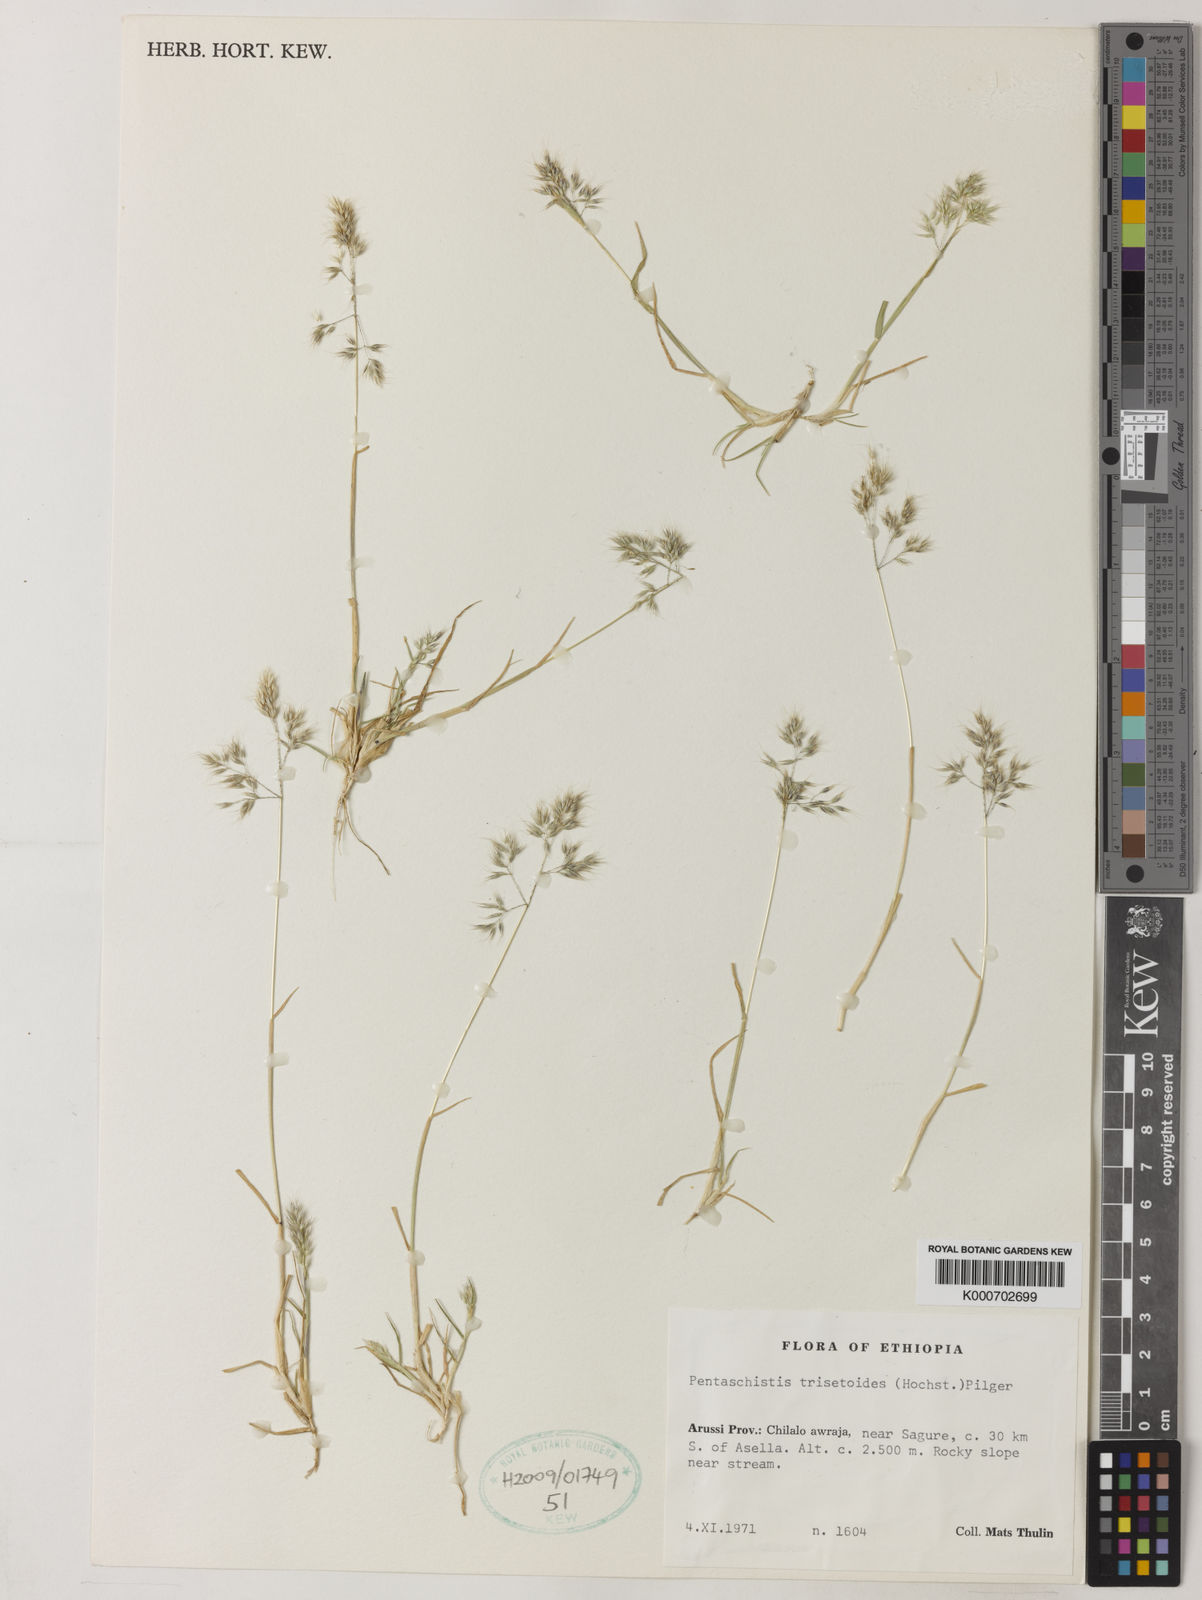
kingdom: Plantae
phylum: Tracheophyta
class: Liliopsida
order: Poales
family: Poaceae
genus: Pentaschistis
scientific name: Pentaschistis
